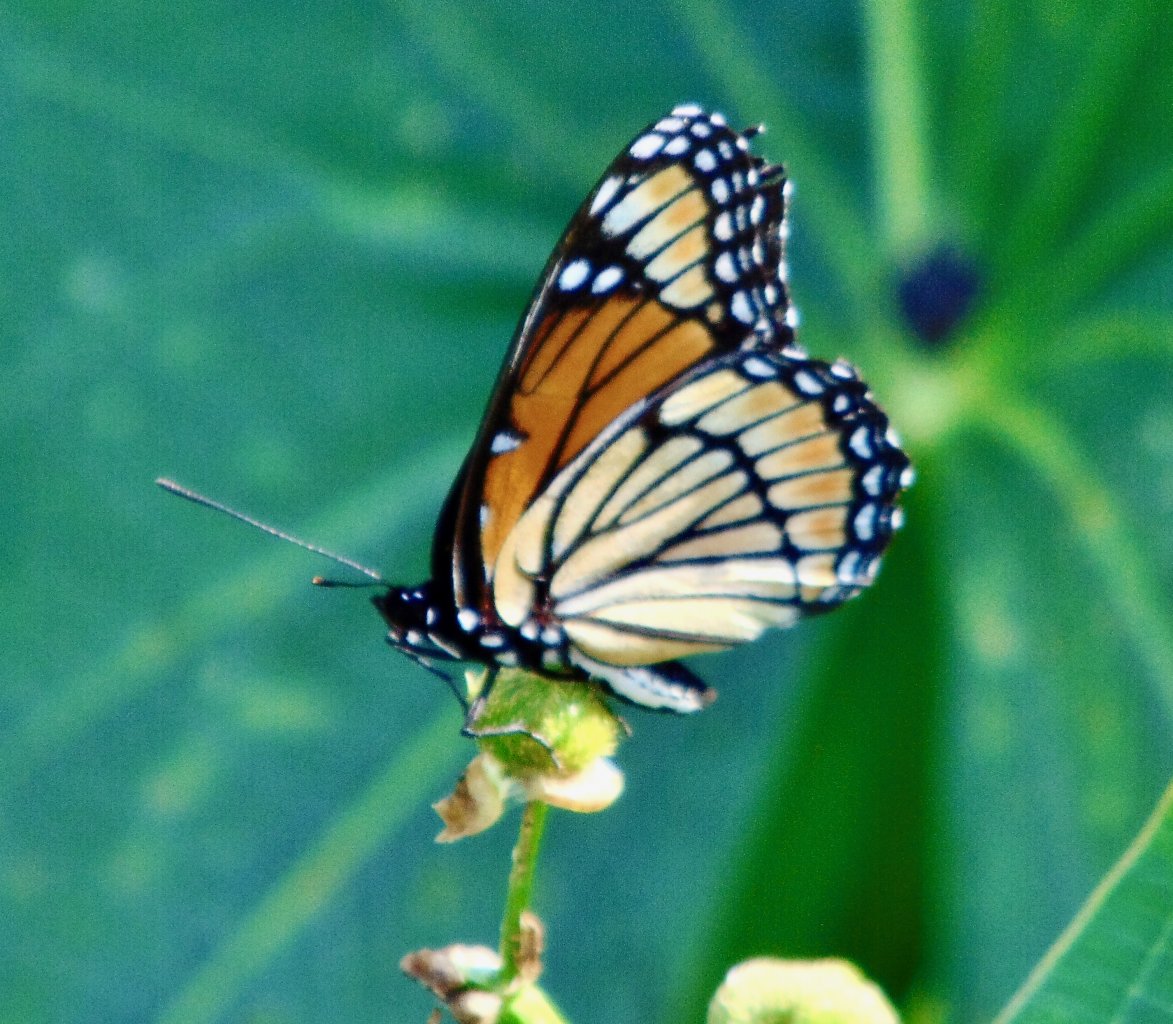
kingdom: Animalia
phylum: Arthropoda
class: Insecta
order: Lepidoptera
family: Nymphalidae
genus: Limenitis
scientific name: Limenitis archippus
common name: Viceroy
